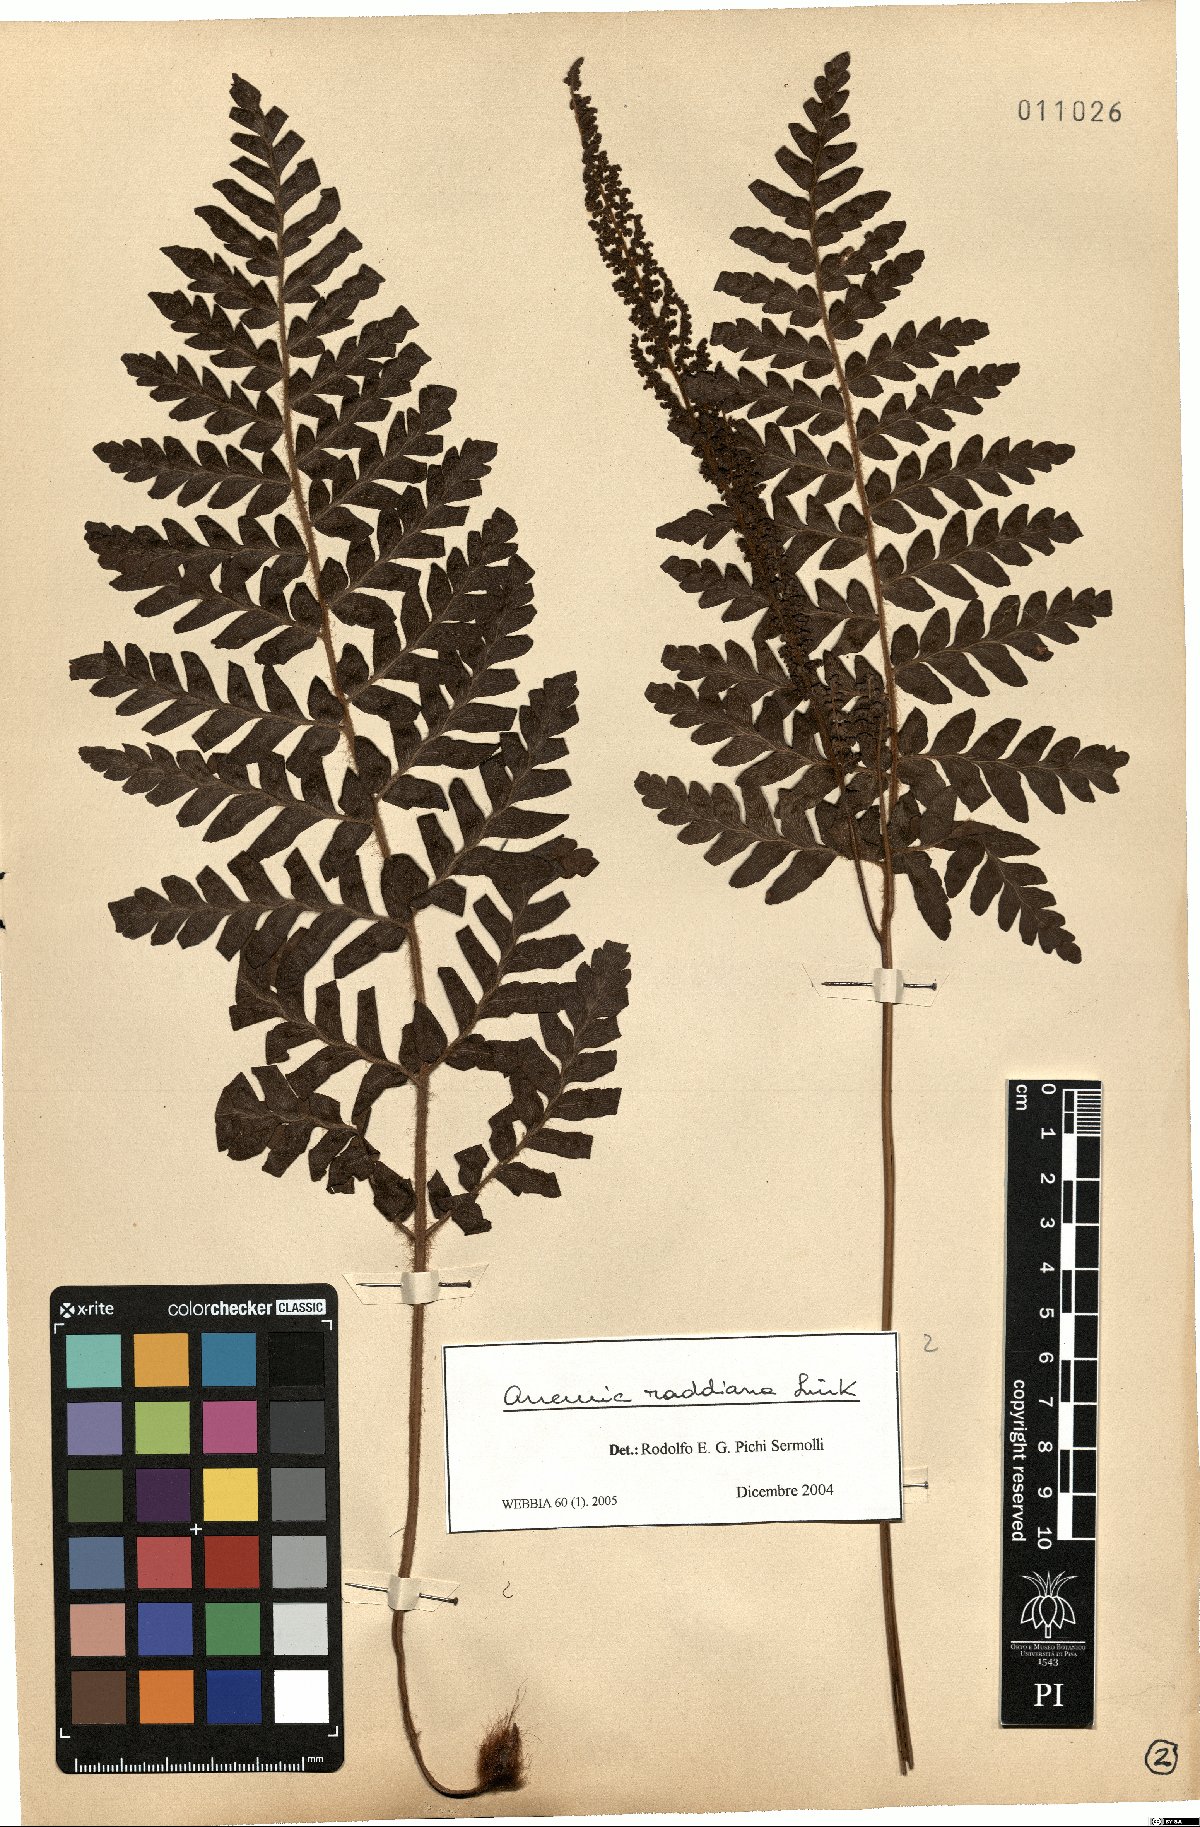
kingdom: Plantae
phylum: Tracheophyta
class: Polypodiopsida
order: Schizaeales
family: Anemiaceae
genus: Anemia
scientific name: Anemia raddiana
